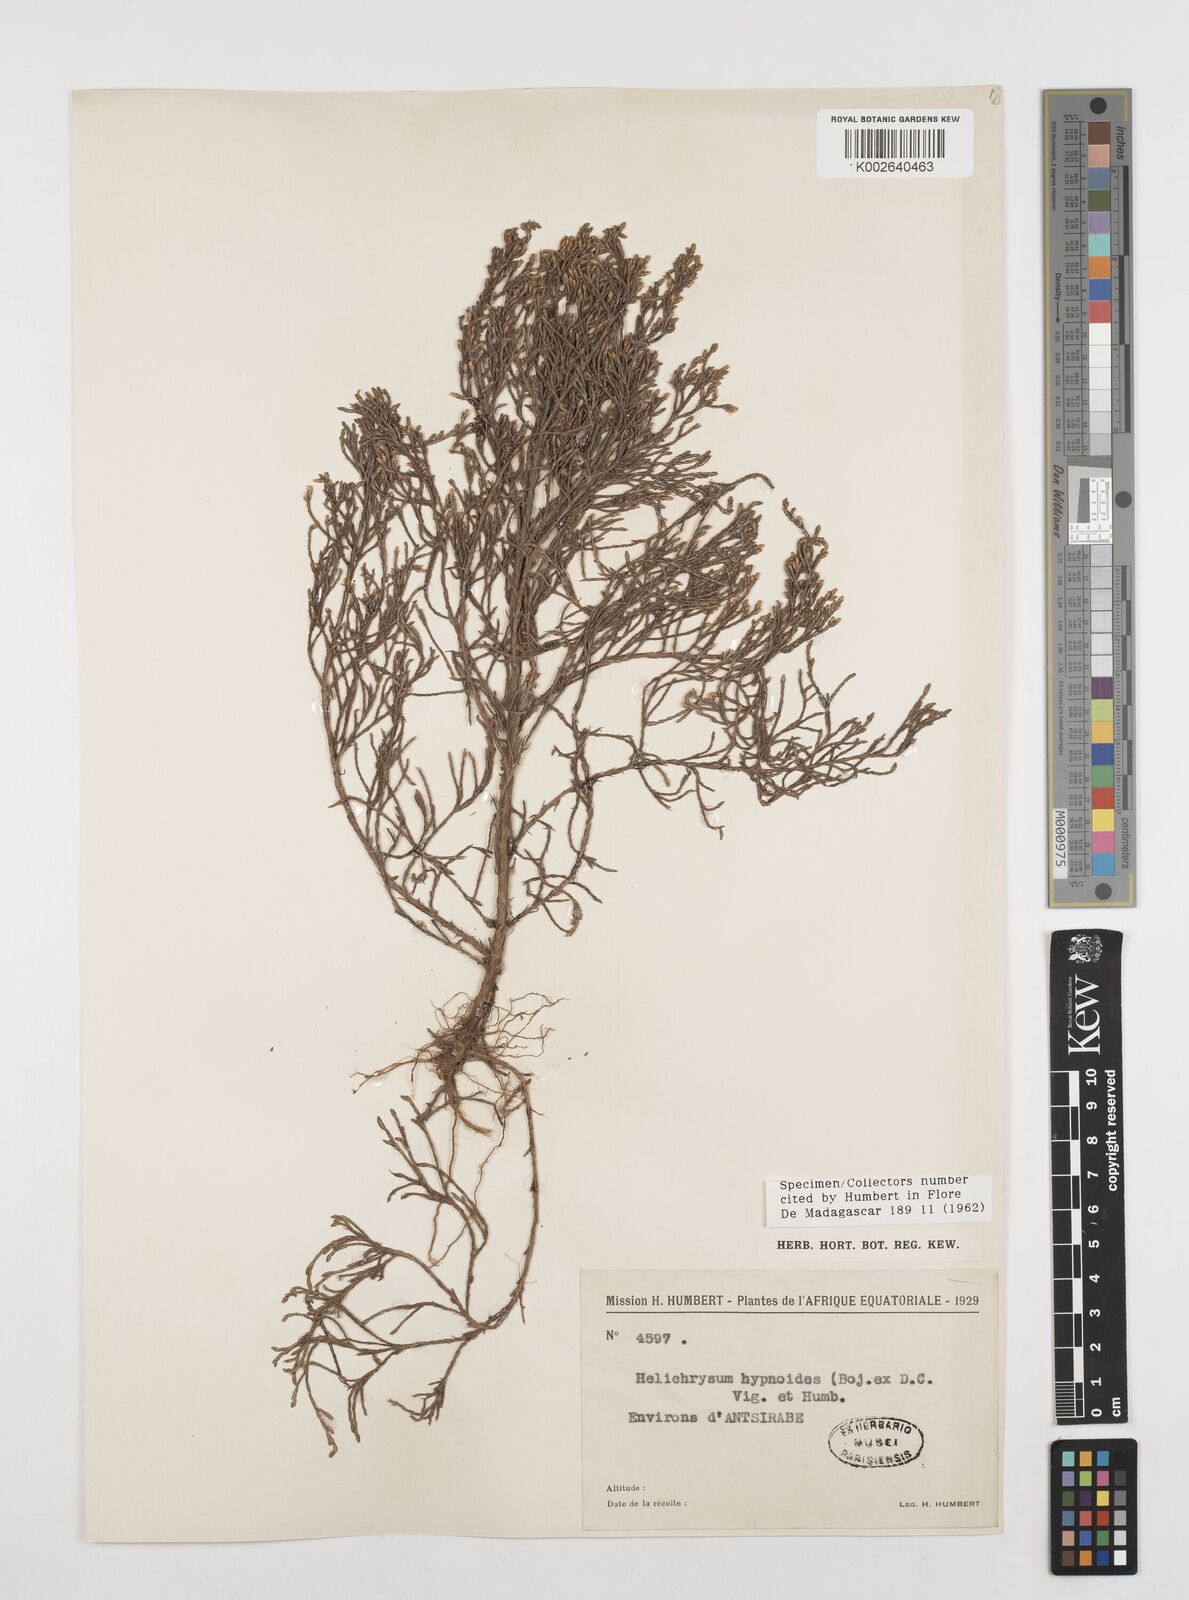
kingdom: Plantae
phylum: Tracheophyta
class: Magnoliopsida
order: Asterales
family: Asteraceae
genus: Aphelexis
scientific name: Aphelexis hypnoides
